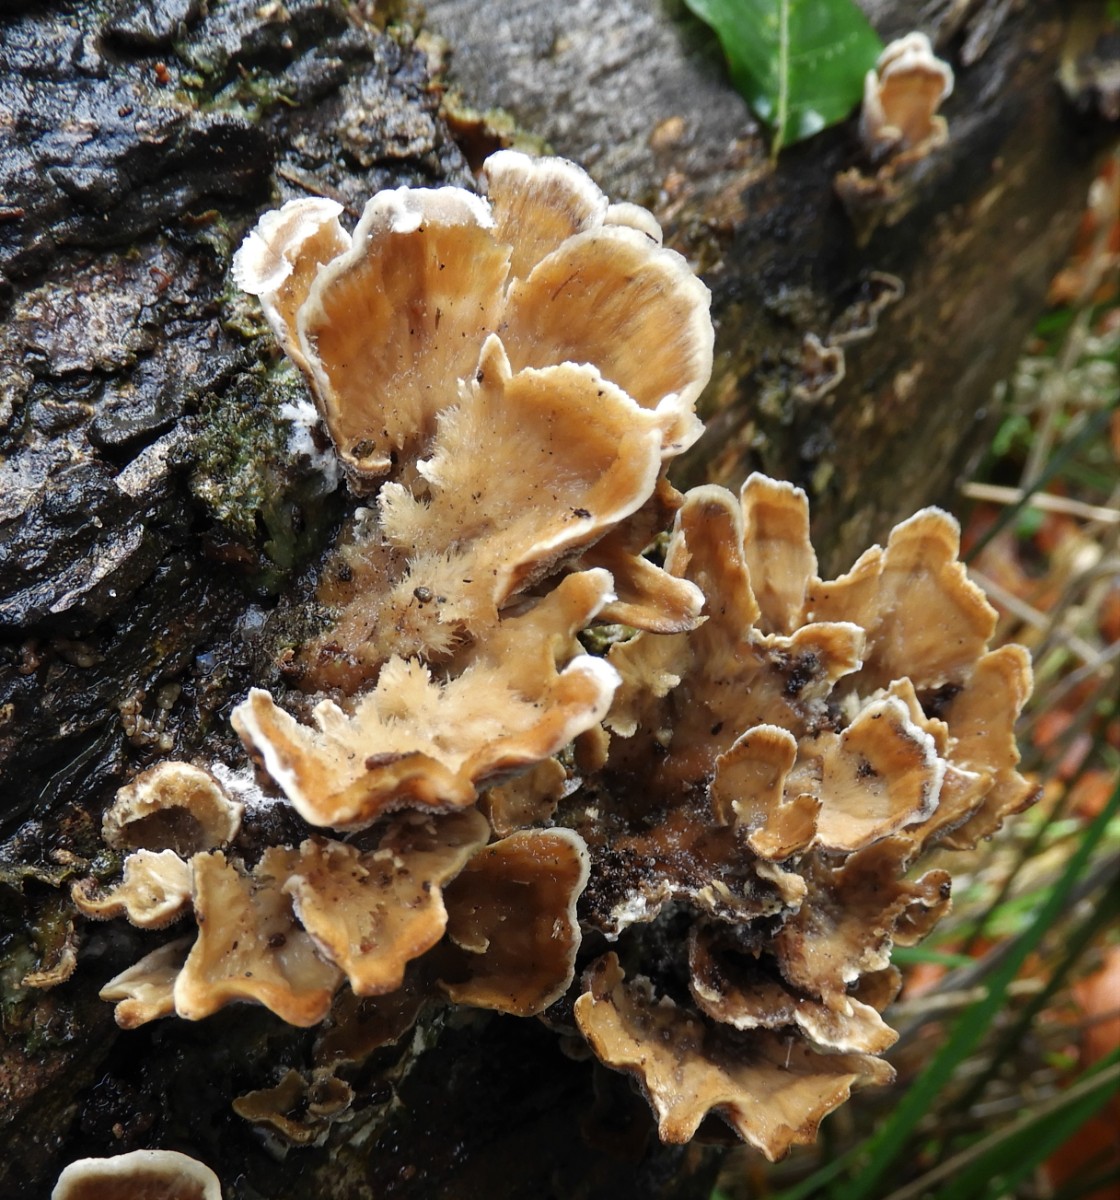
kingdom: Fungi
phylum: Basidiomycota
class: Agaricomycetes
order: Polyporales
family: Phanerochaetaceae
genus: Bjerkandera
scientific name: Bjerkandera adusta
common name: sveden sodporesvamp
